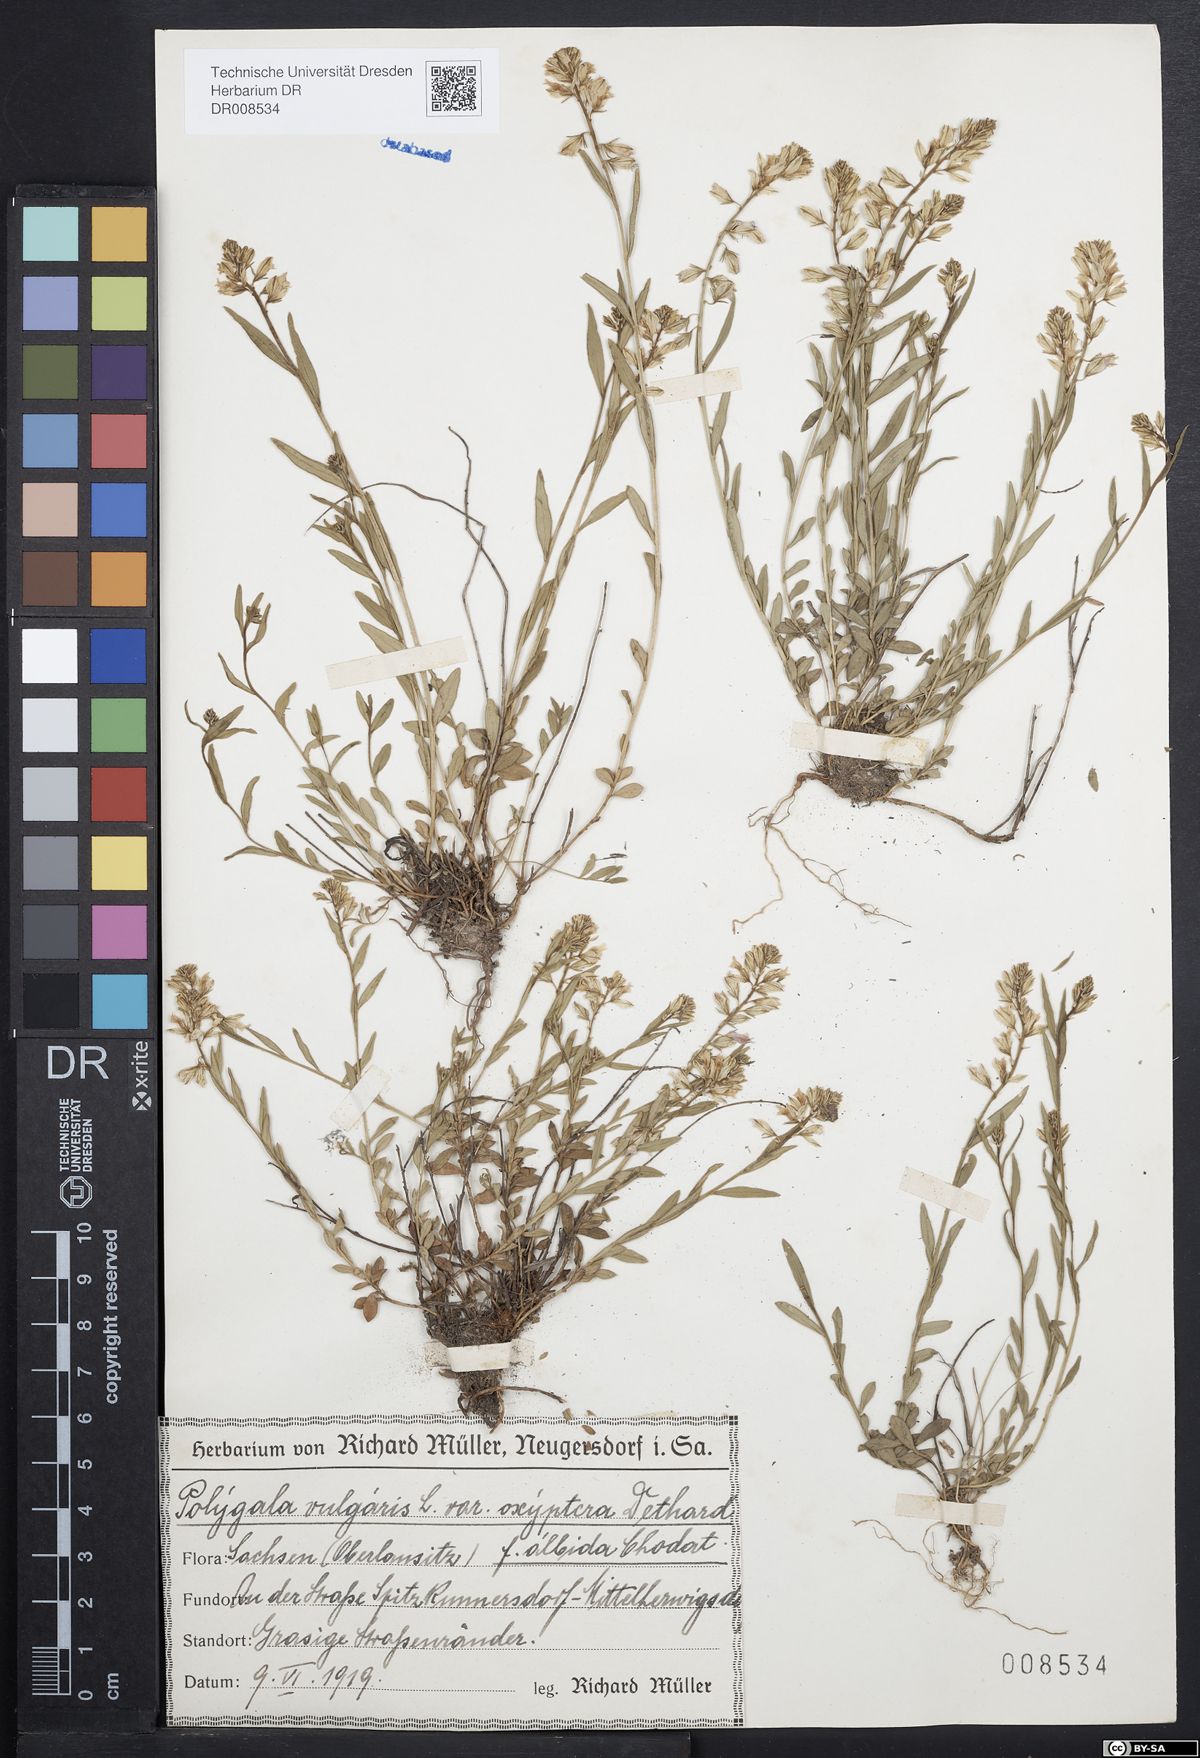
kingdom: Plantae
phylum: Tracheophyta
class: Magnoliopsida
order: Fabales
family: Polygalaceae
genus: Polygala
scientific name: Polygala vulgaris
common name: Common milkwort
